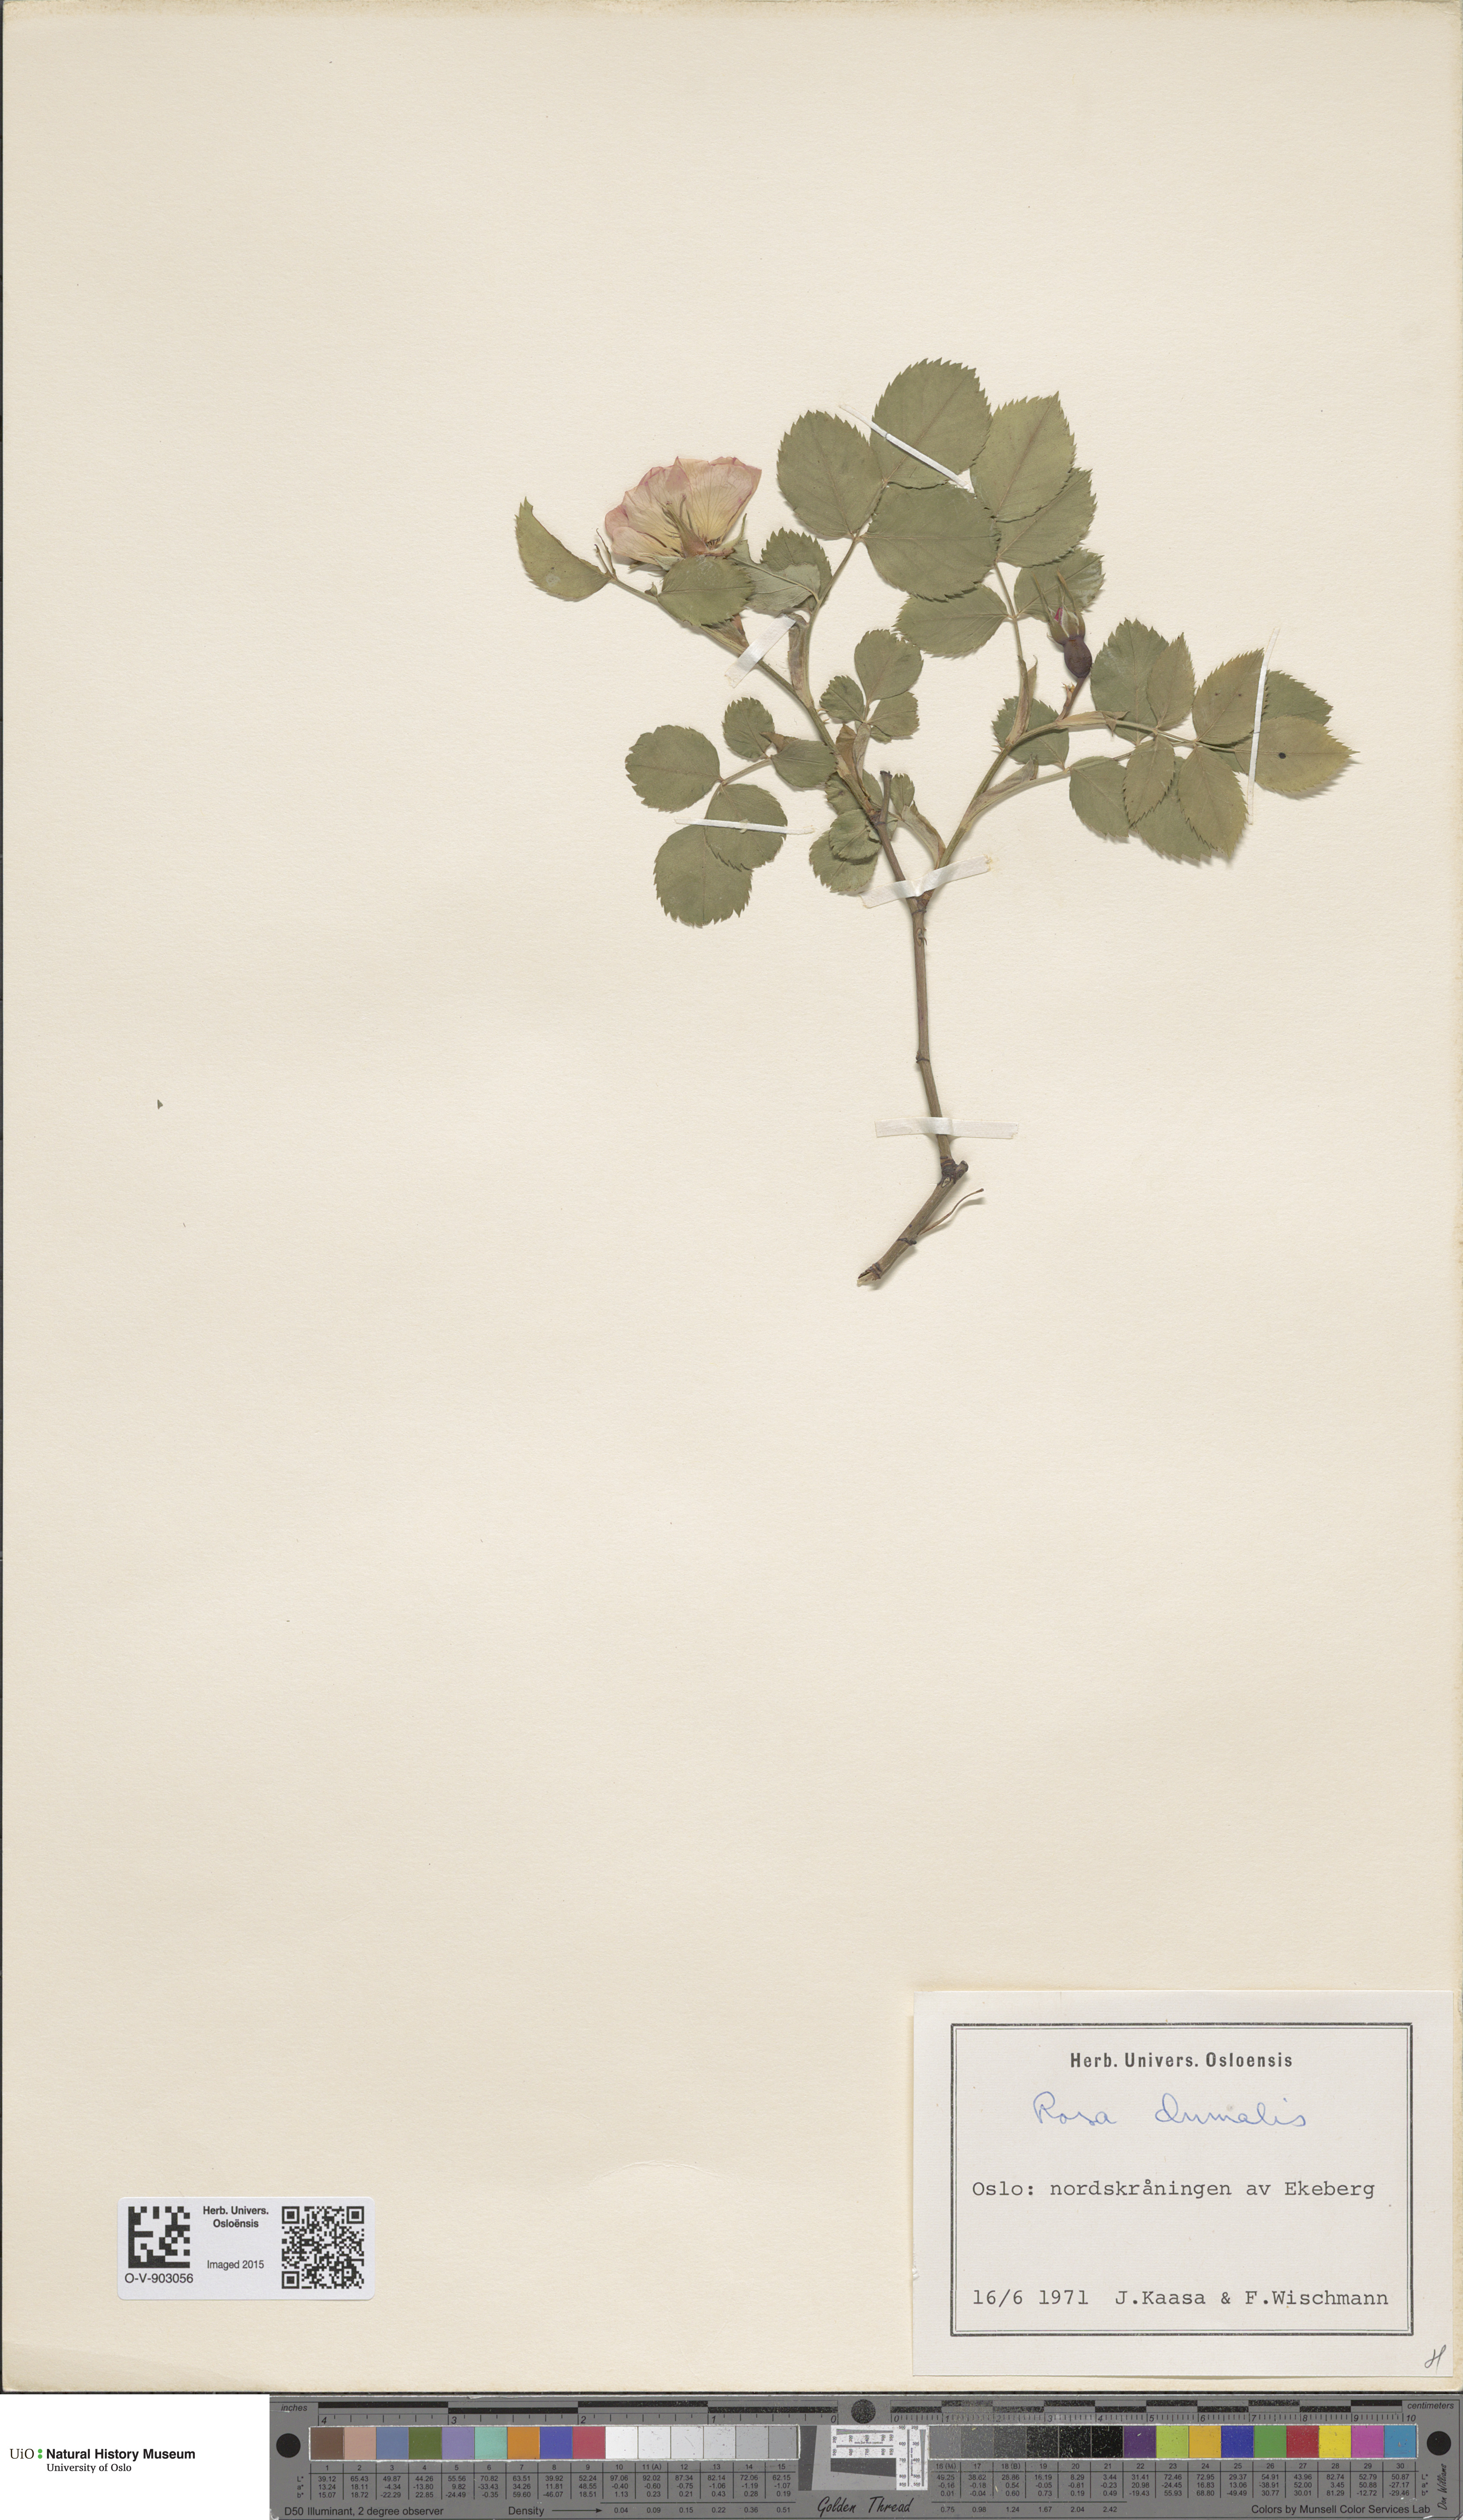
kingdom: Plantae
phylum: Tracheophyta
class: Magnoliopsida
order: Rosales
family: Rosaceae
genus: Rosa
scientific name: Rosa dumalis
